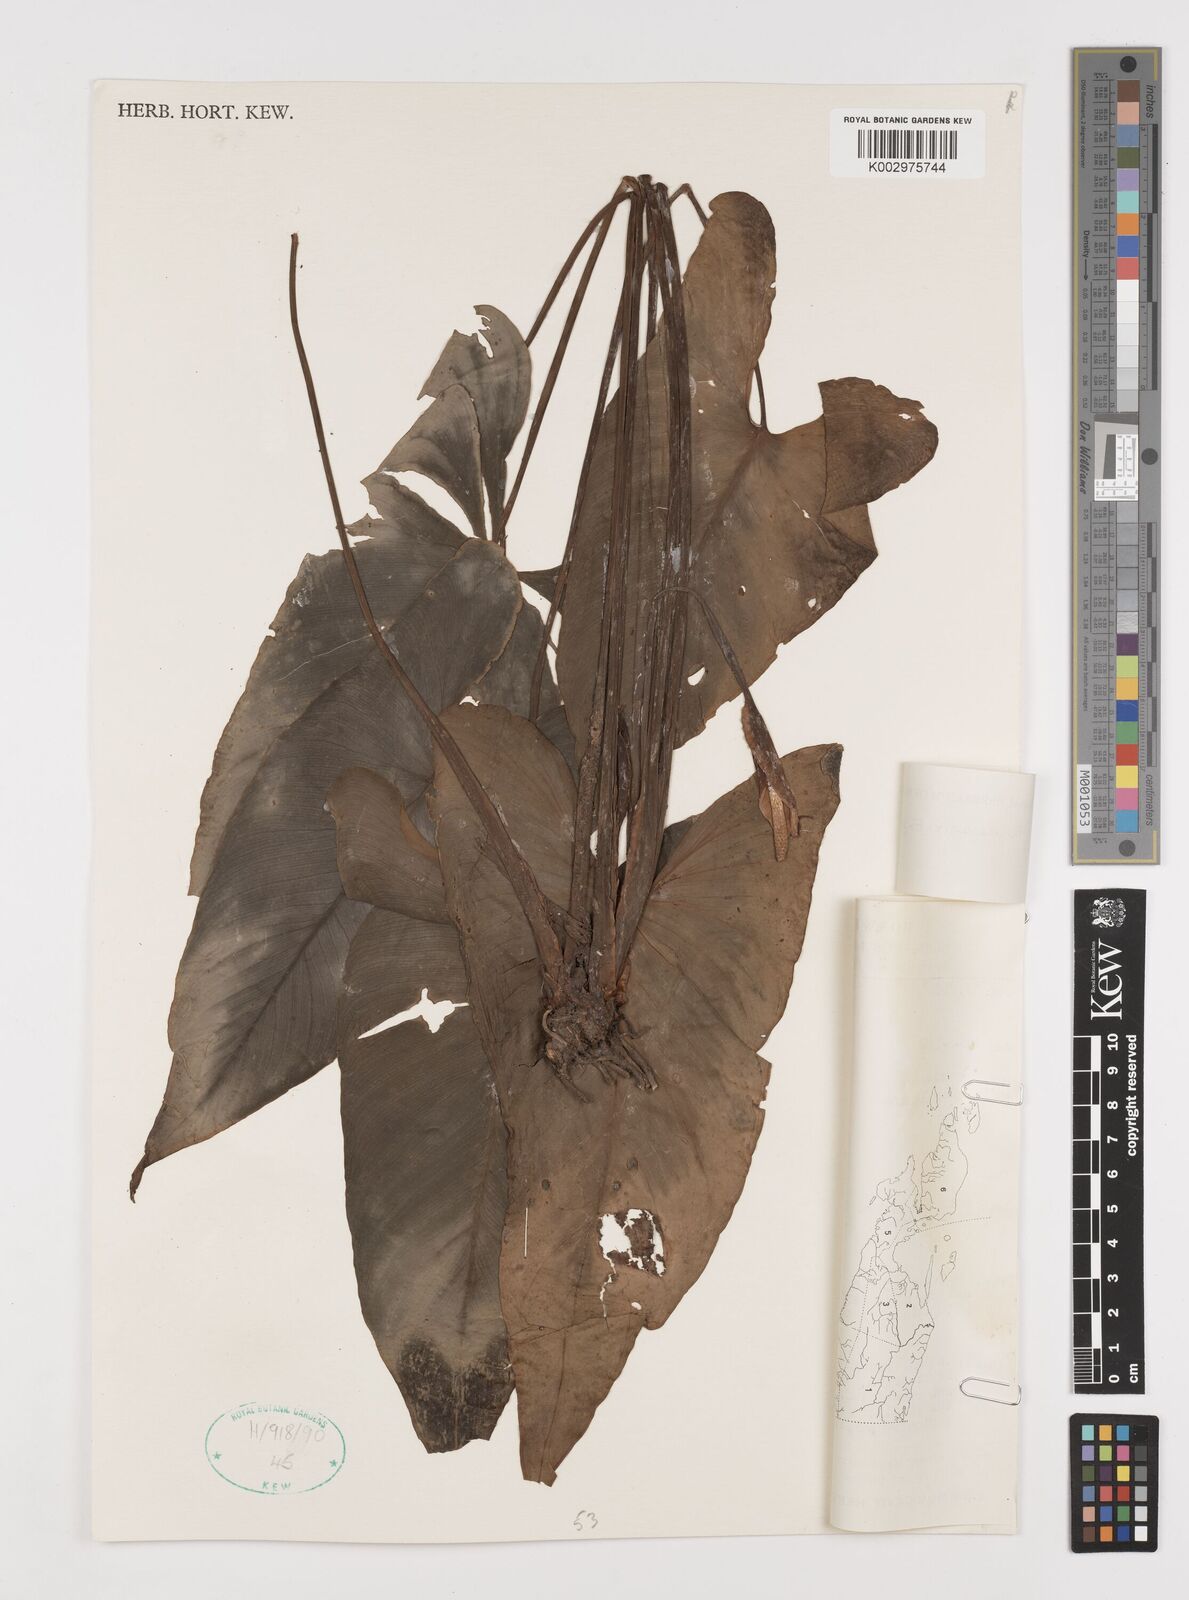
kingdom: Plantae
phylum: Tracheophyta
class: Liliopsida
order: Alismatales
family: Araceae
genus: Homalomena
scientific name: Homalomena tenuispadix
